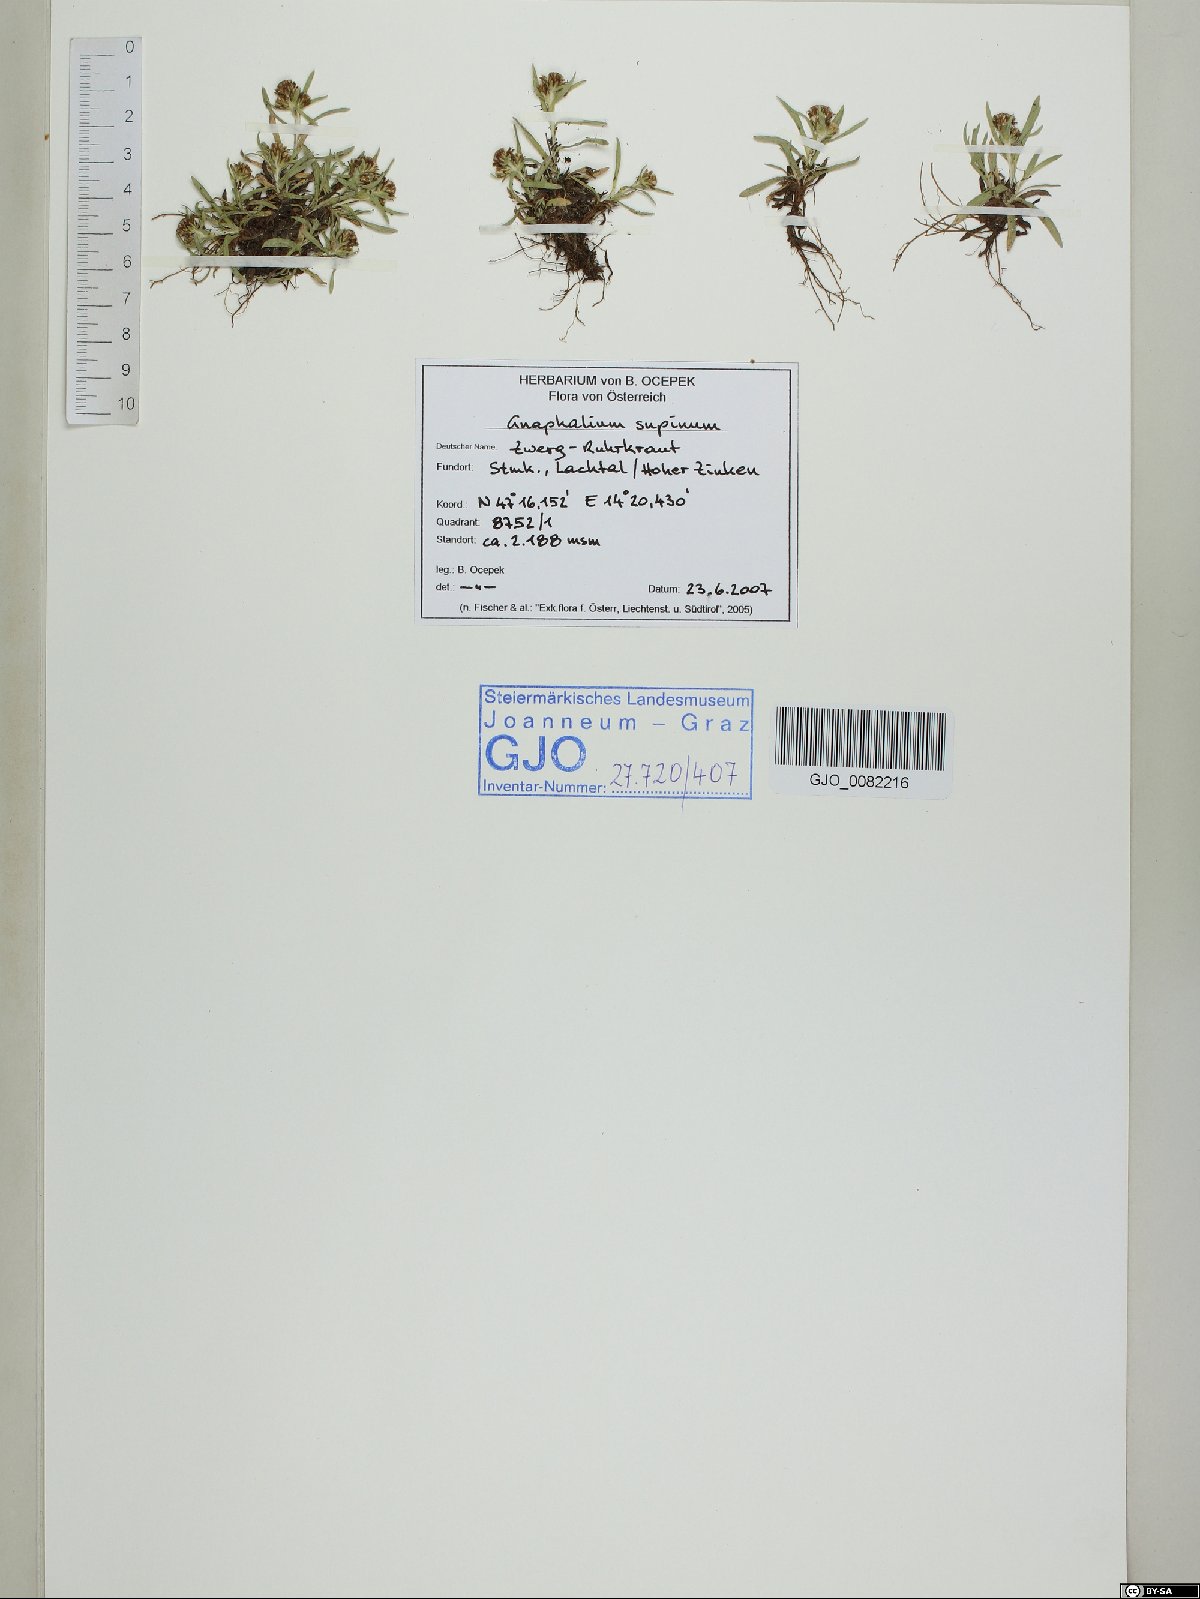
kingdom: Plantae
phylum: Tracheophyta
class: Magnoliopsida
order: Asterales
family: Asteraceae
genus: Omalotheca
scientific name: Omalotheca supina
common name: Alpine arctic-cudweed
